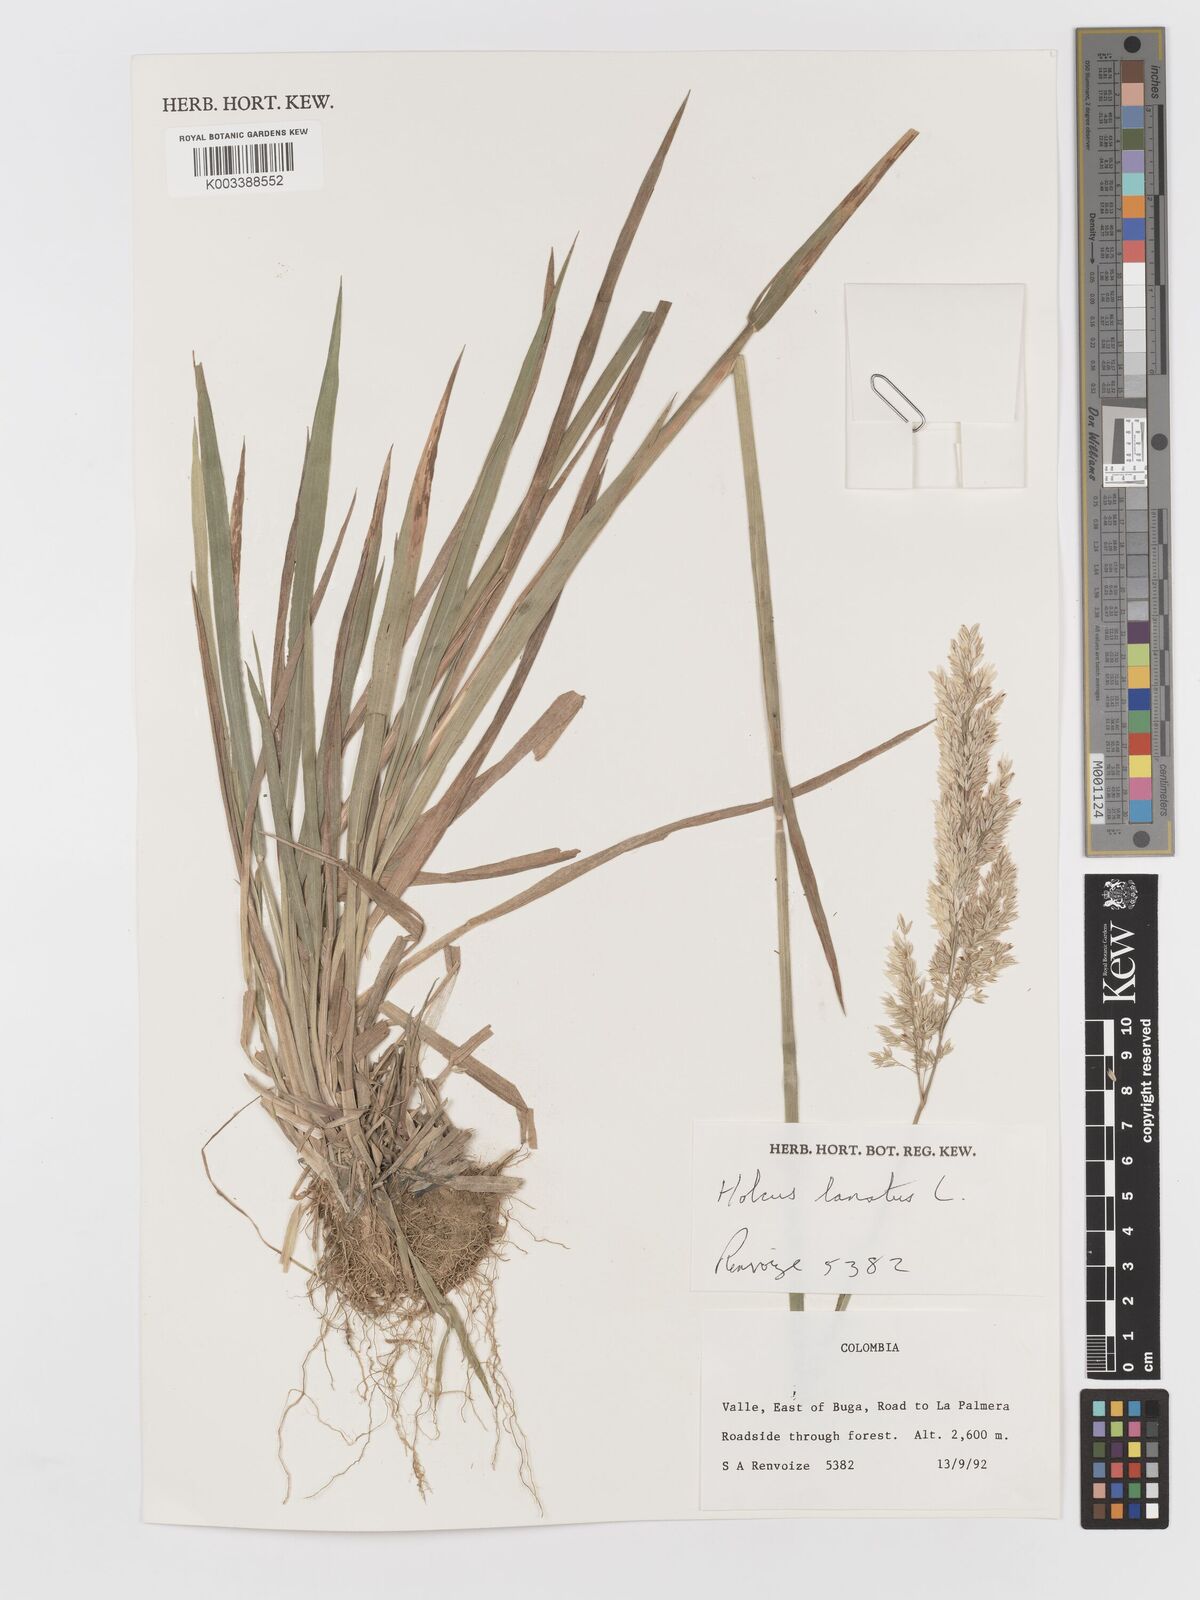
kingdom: Plantae
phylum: Tracheophyta
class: Liliopsida
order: Poales
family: Poaceae
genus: Holcus
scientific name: Holcus lanatus
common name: Yorkshire-fog
